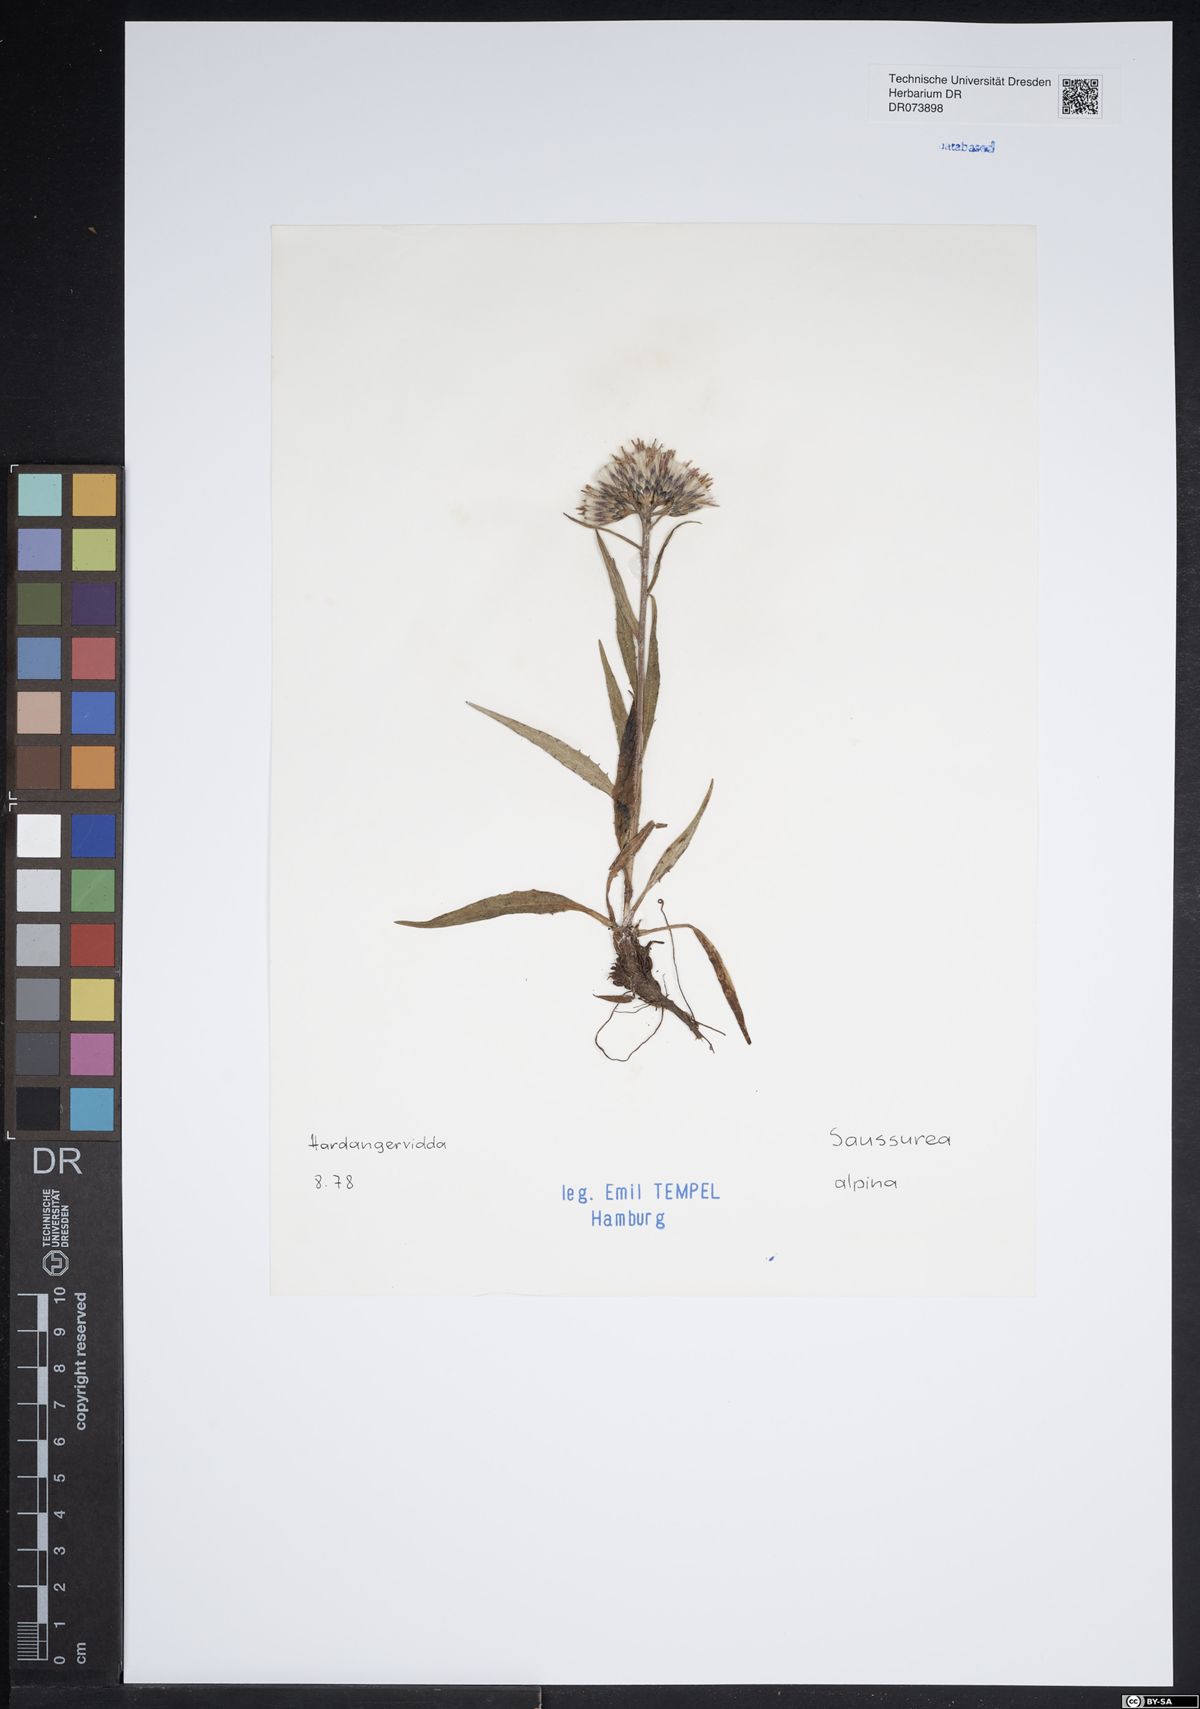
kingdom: Plantae
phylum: Tracheophyta
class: Magnoliopsida
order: Asterales
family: Asteraceae
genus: Saussurea
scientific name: Saussurea alpina
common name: Alpine saw-wort
